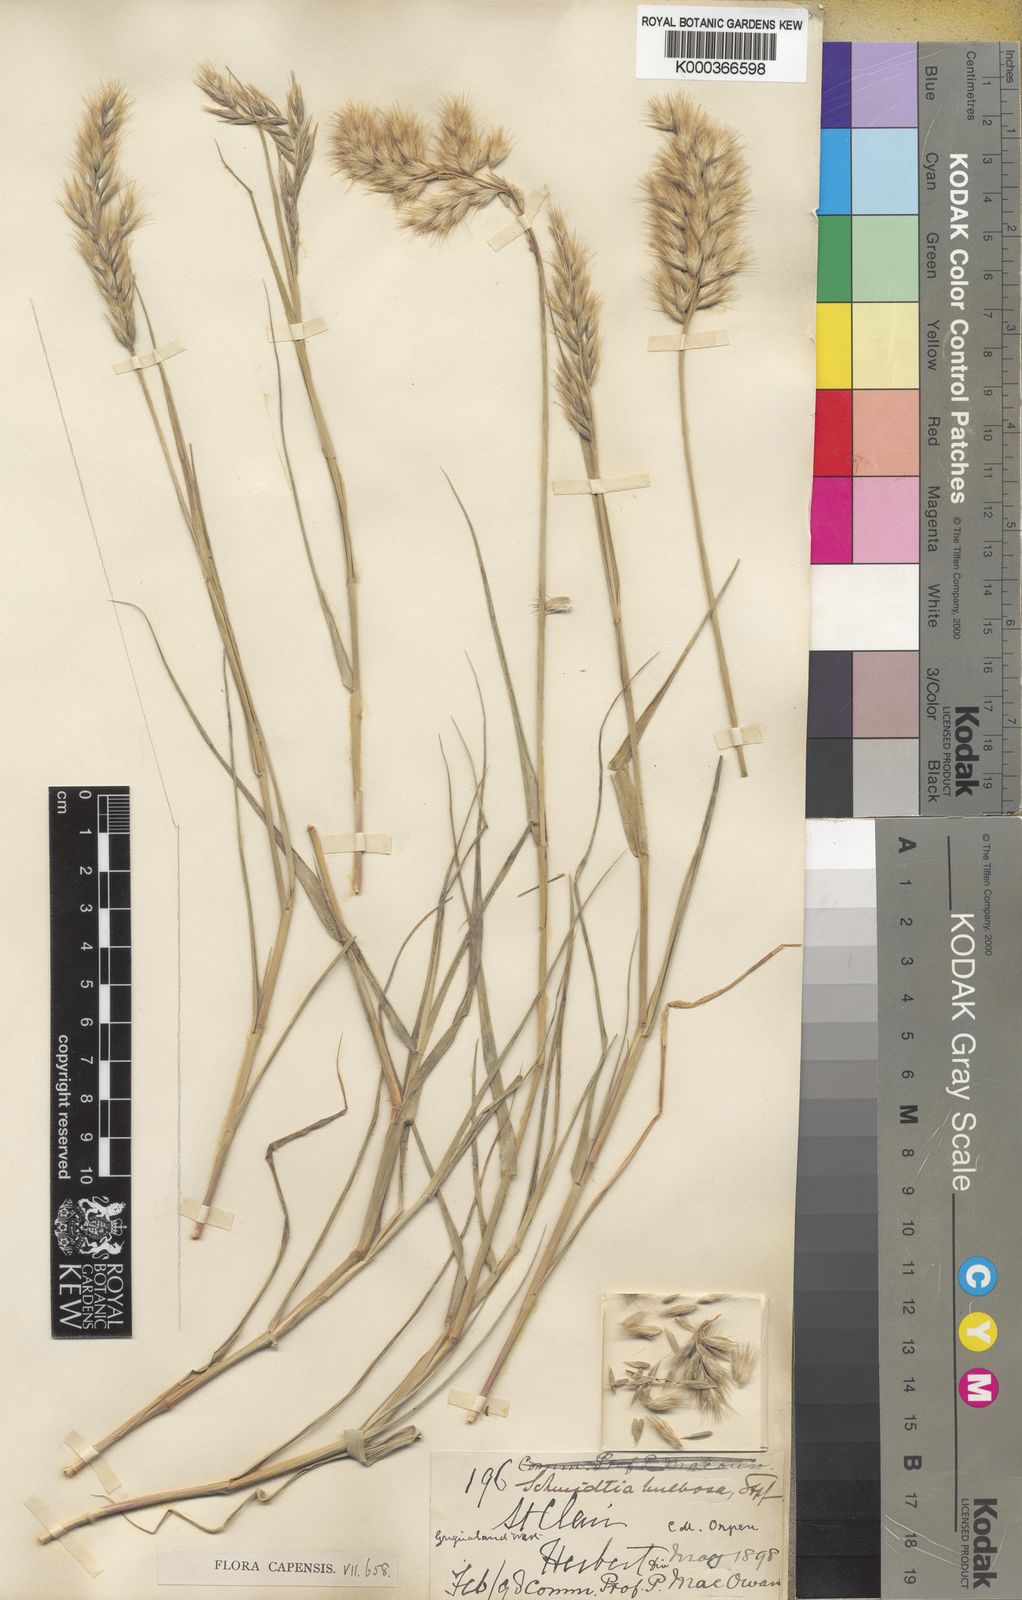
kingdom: Plantae
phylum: Tracheophyta
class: Liliopsida
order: Poales
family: Poaceae
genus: Schmidtia
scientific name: Schmidtia pappophoroides
